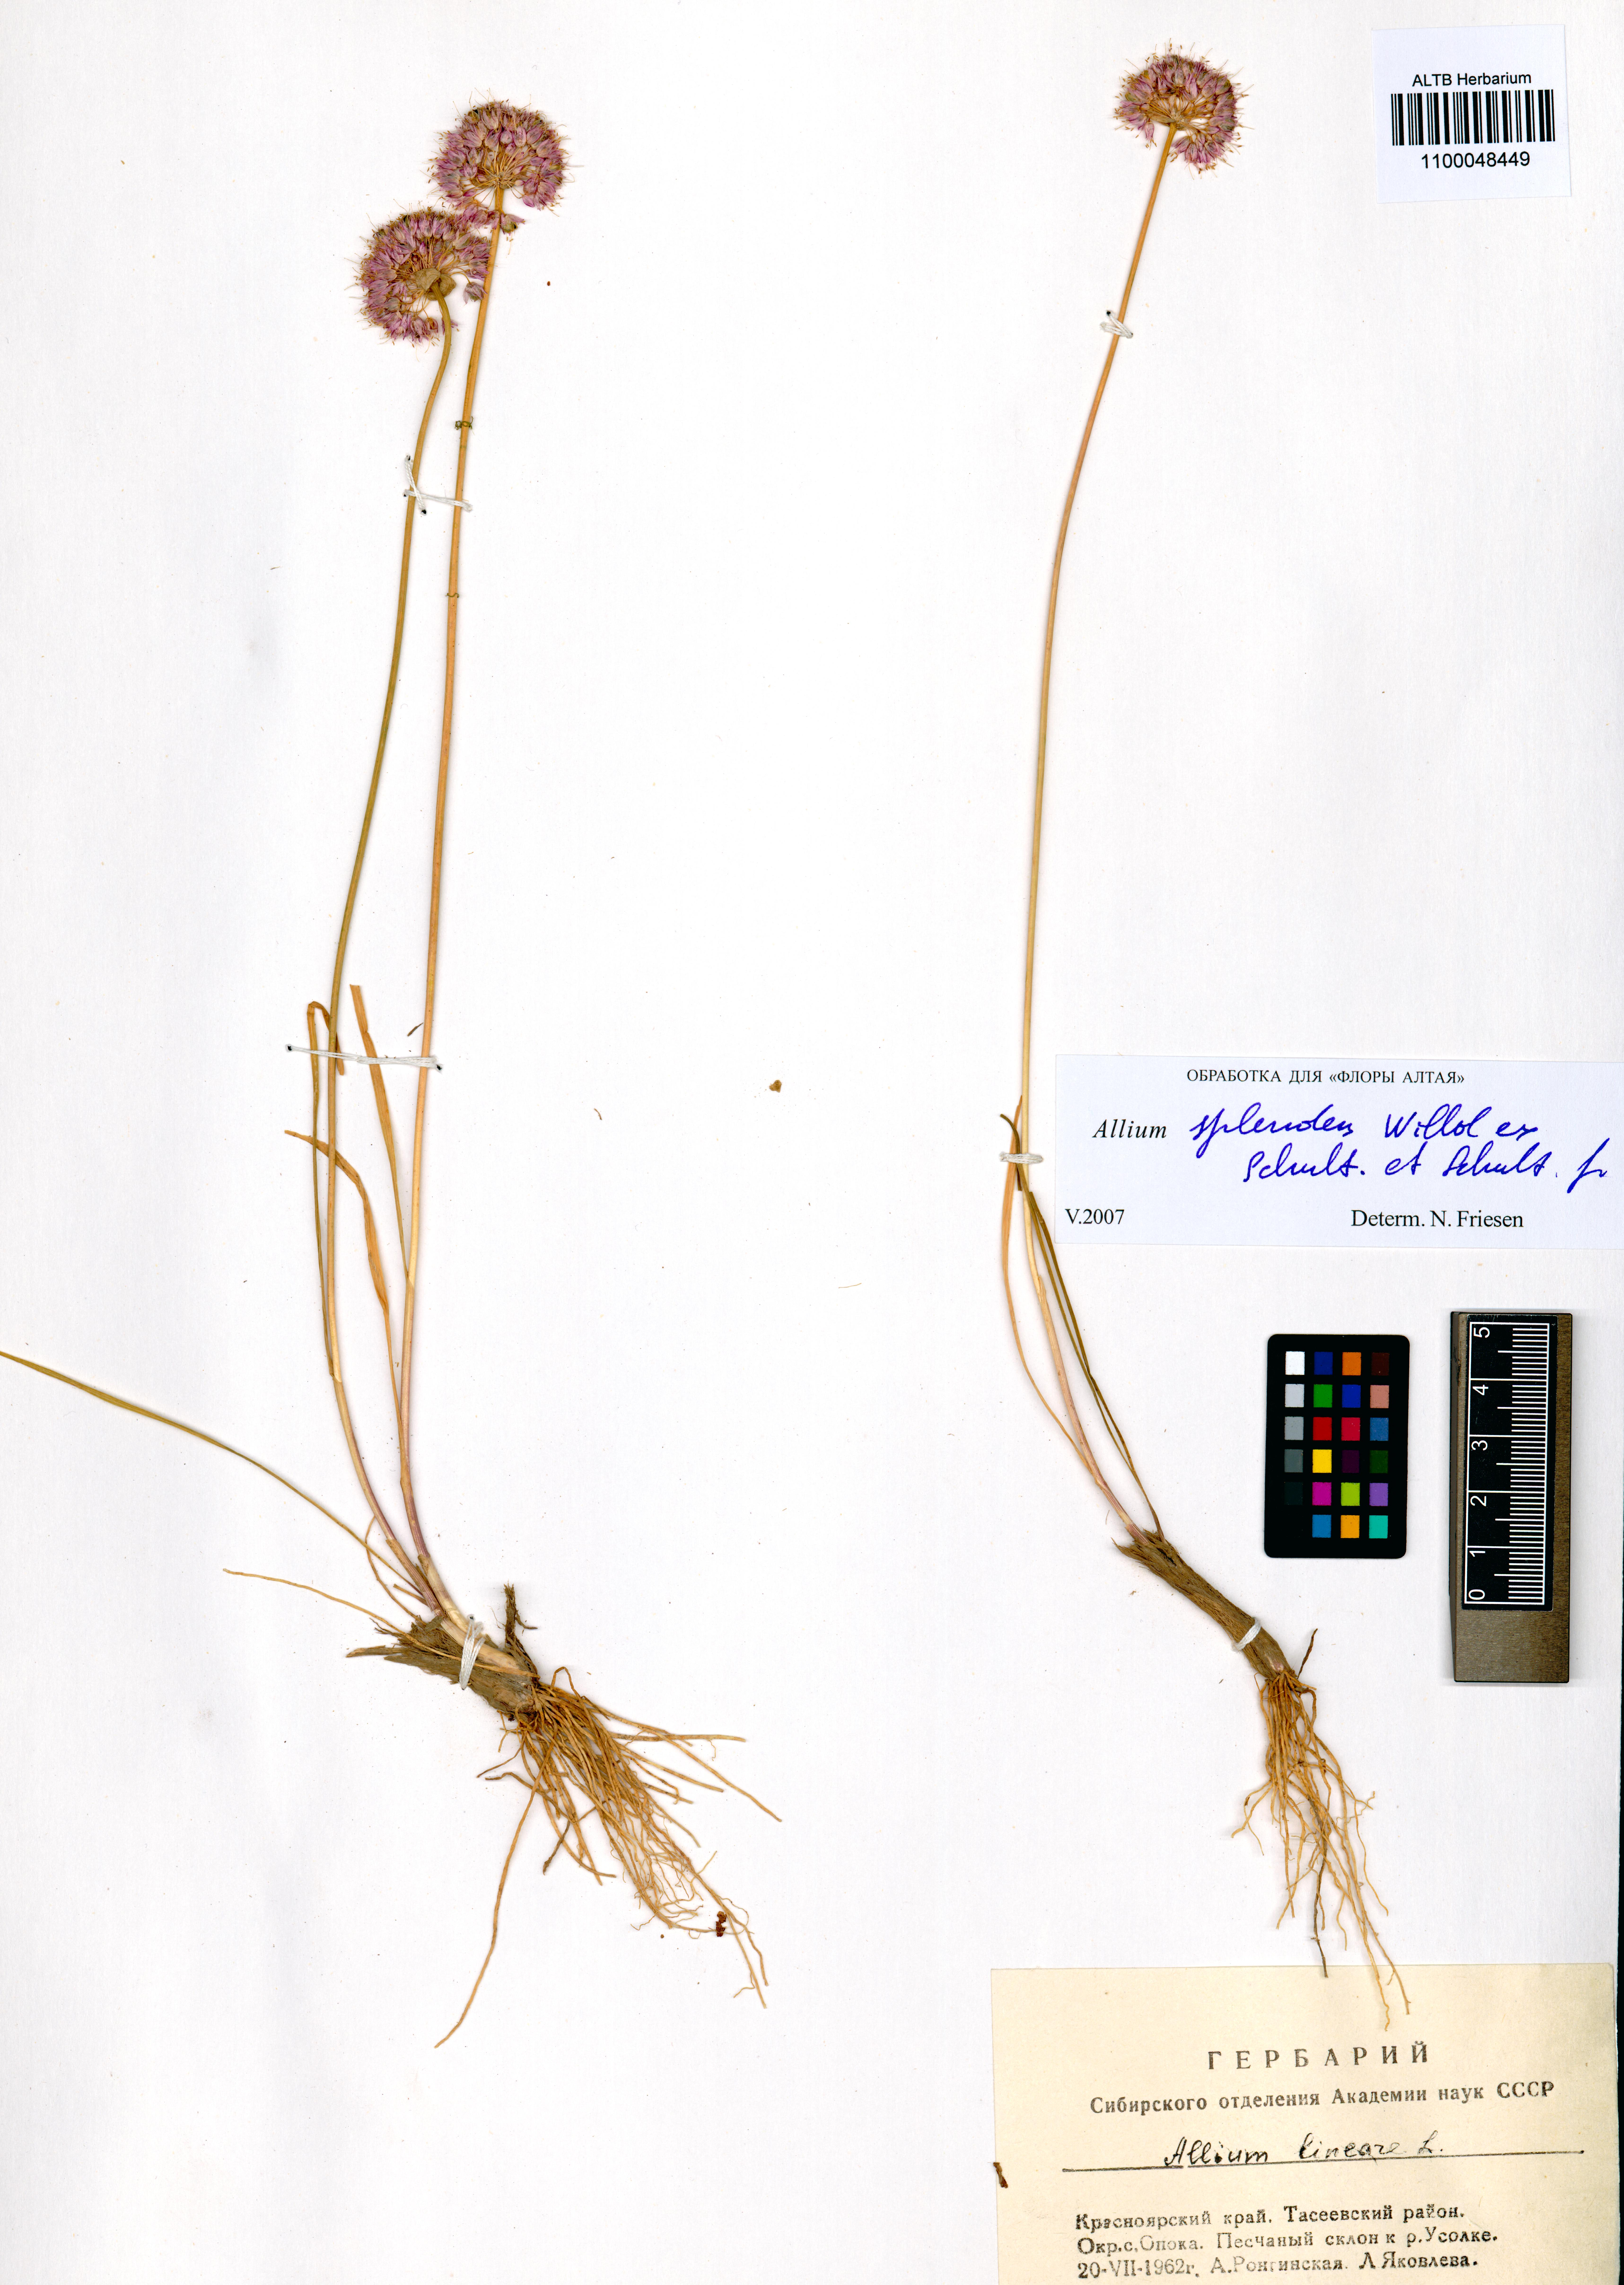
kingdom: Plantae
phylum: Tracheophyta
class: Liliopsida
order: Asparagales
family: Amaryllidaceae
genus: Allium
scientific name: Allium splendens
